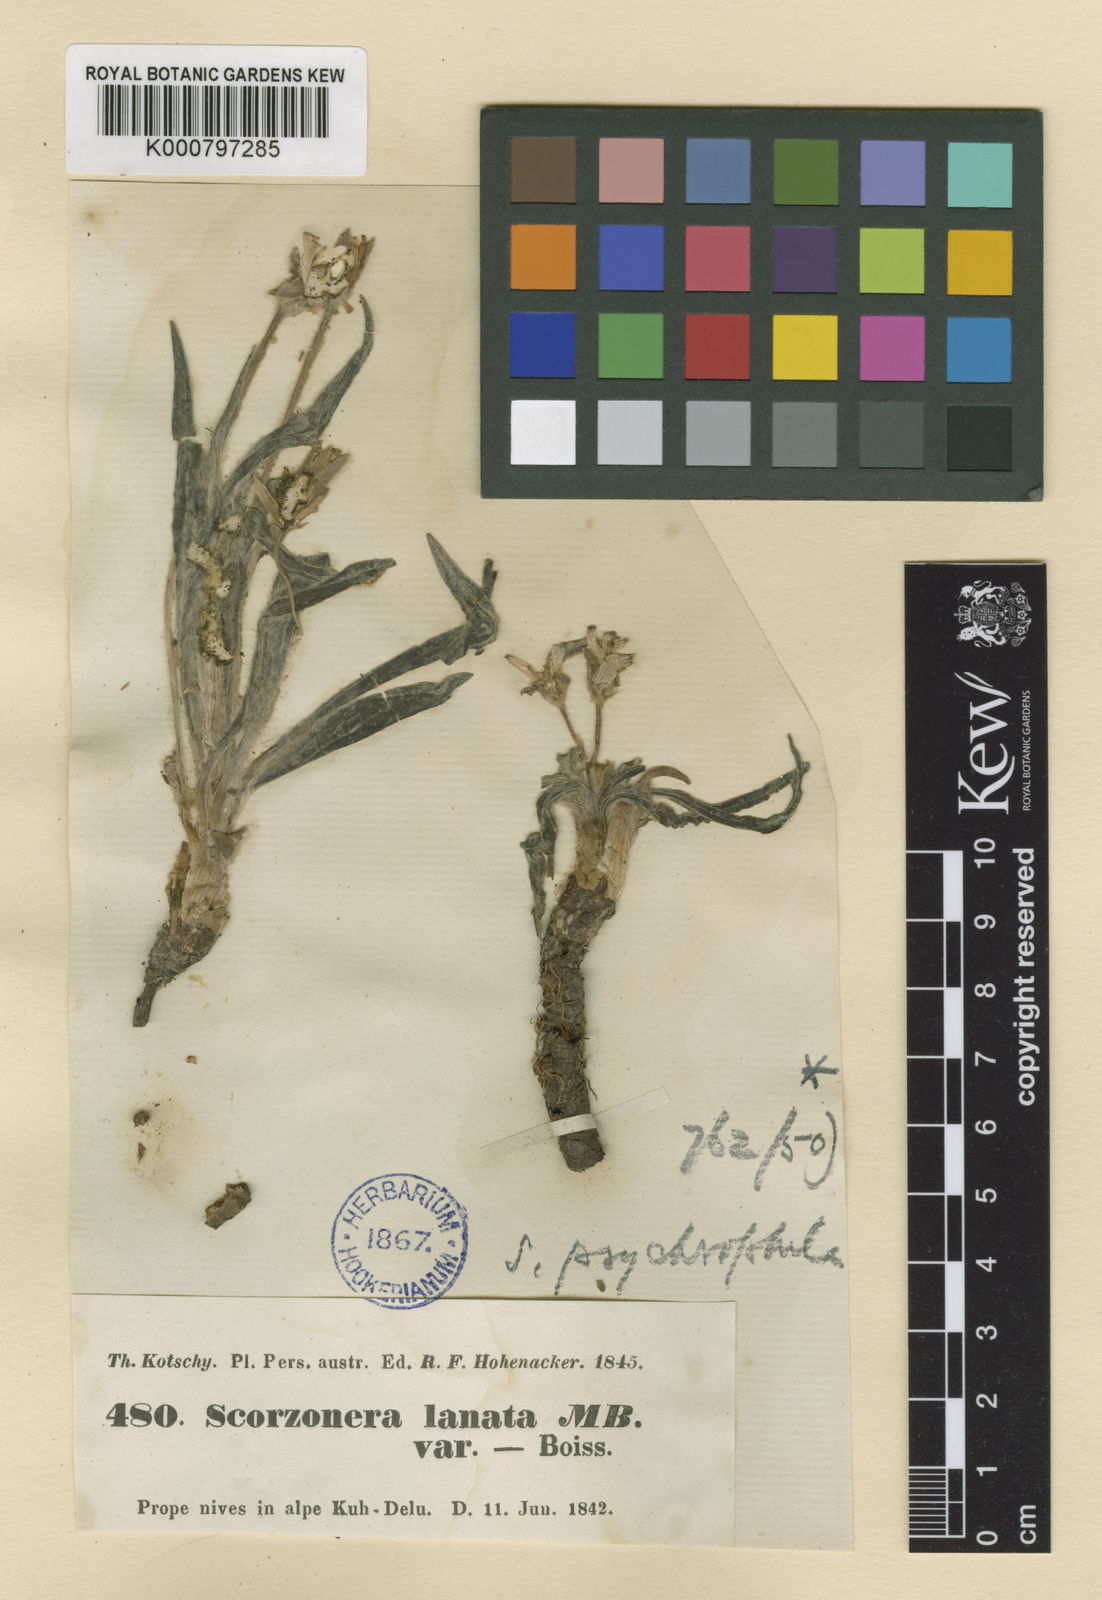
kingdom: Plantae
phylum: Tracheophyta
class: Magnoliopsida
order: Asterales
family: Asteraceae
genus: Gelasia
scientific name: Gelasia psychrophila
